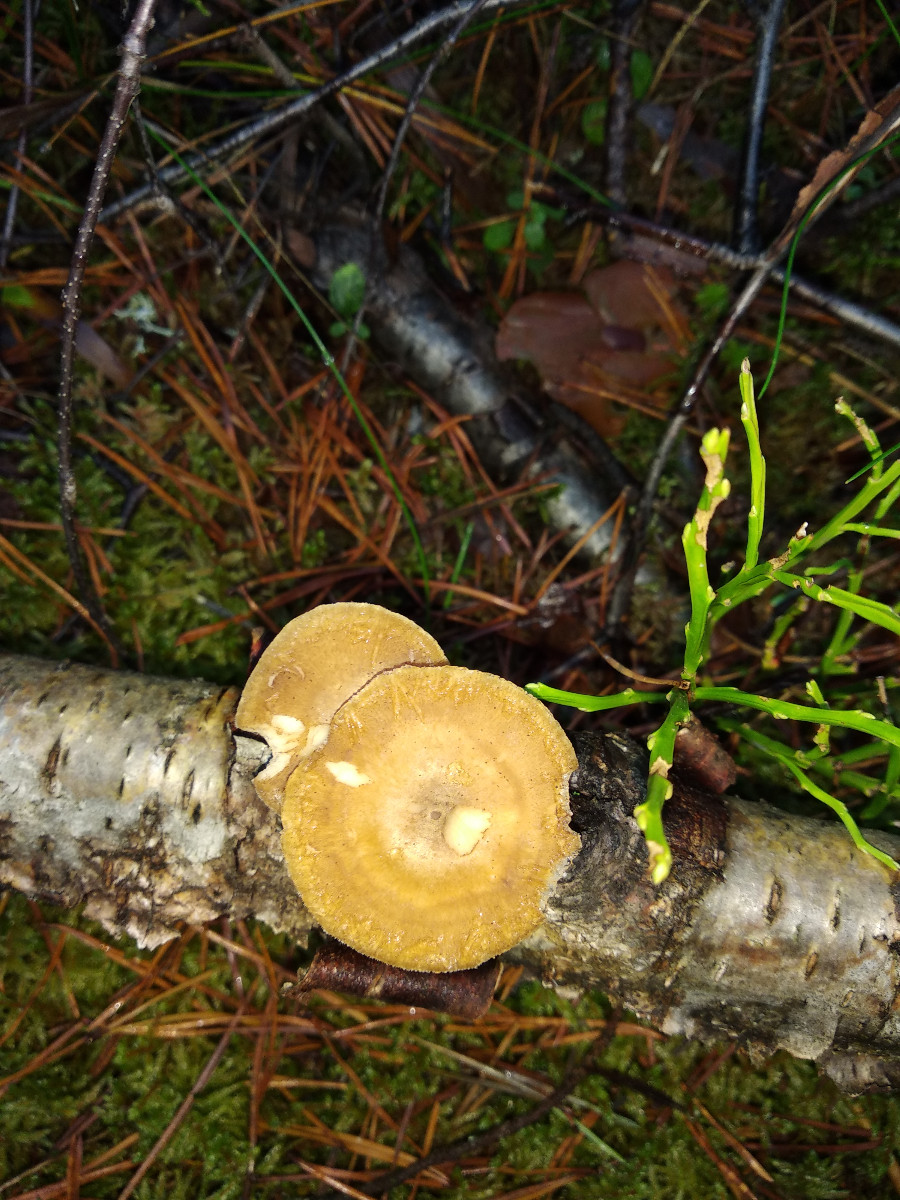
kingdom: Fungi
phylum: Basidiomycota
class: Agaricomycetes
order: Polyporales
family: Polyporaceae
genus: Lentinus
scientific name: Lentinus brumalis
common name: vinter-stilkporesvamp
